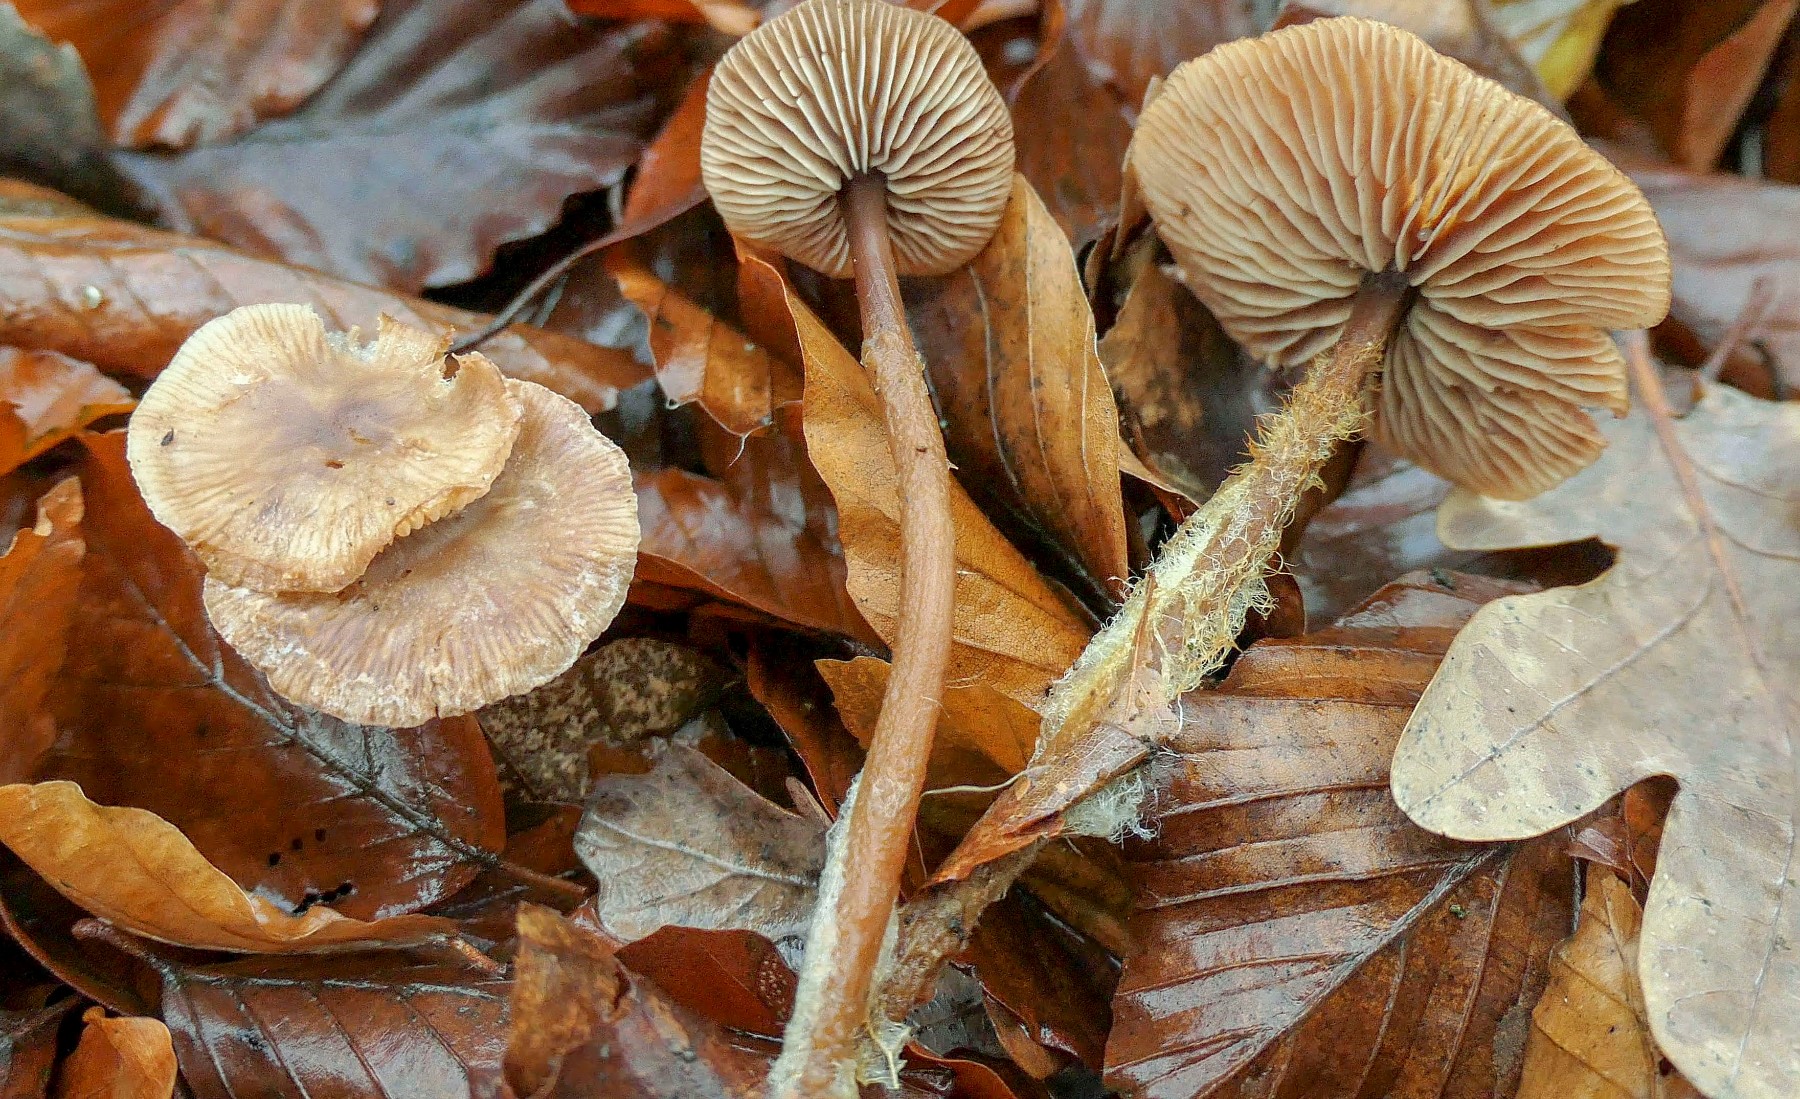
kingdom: Fungi
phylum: Basidiomycota
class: Agaricomycetes
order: Agaricales
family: Omphalotaceae
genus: Gymnopus
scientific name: Gymnopus fagiphilus
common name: bøgeløv-fladhat
